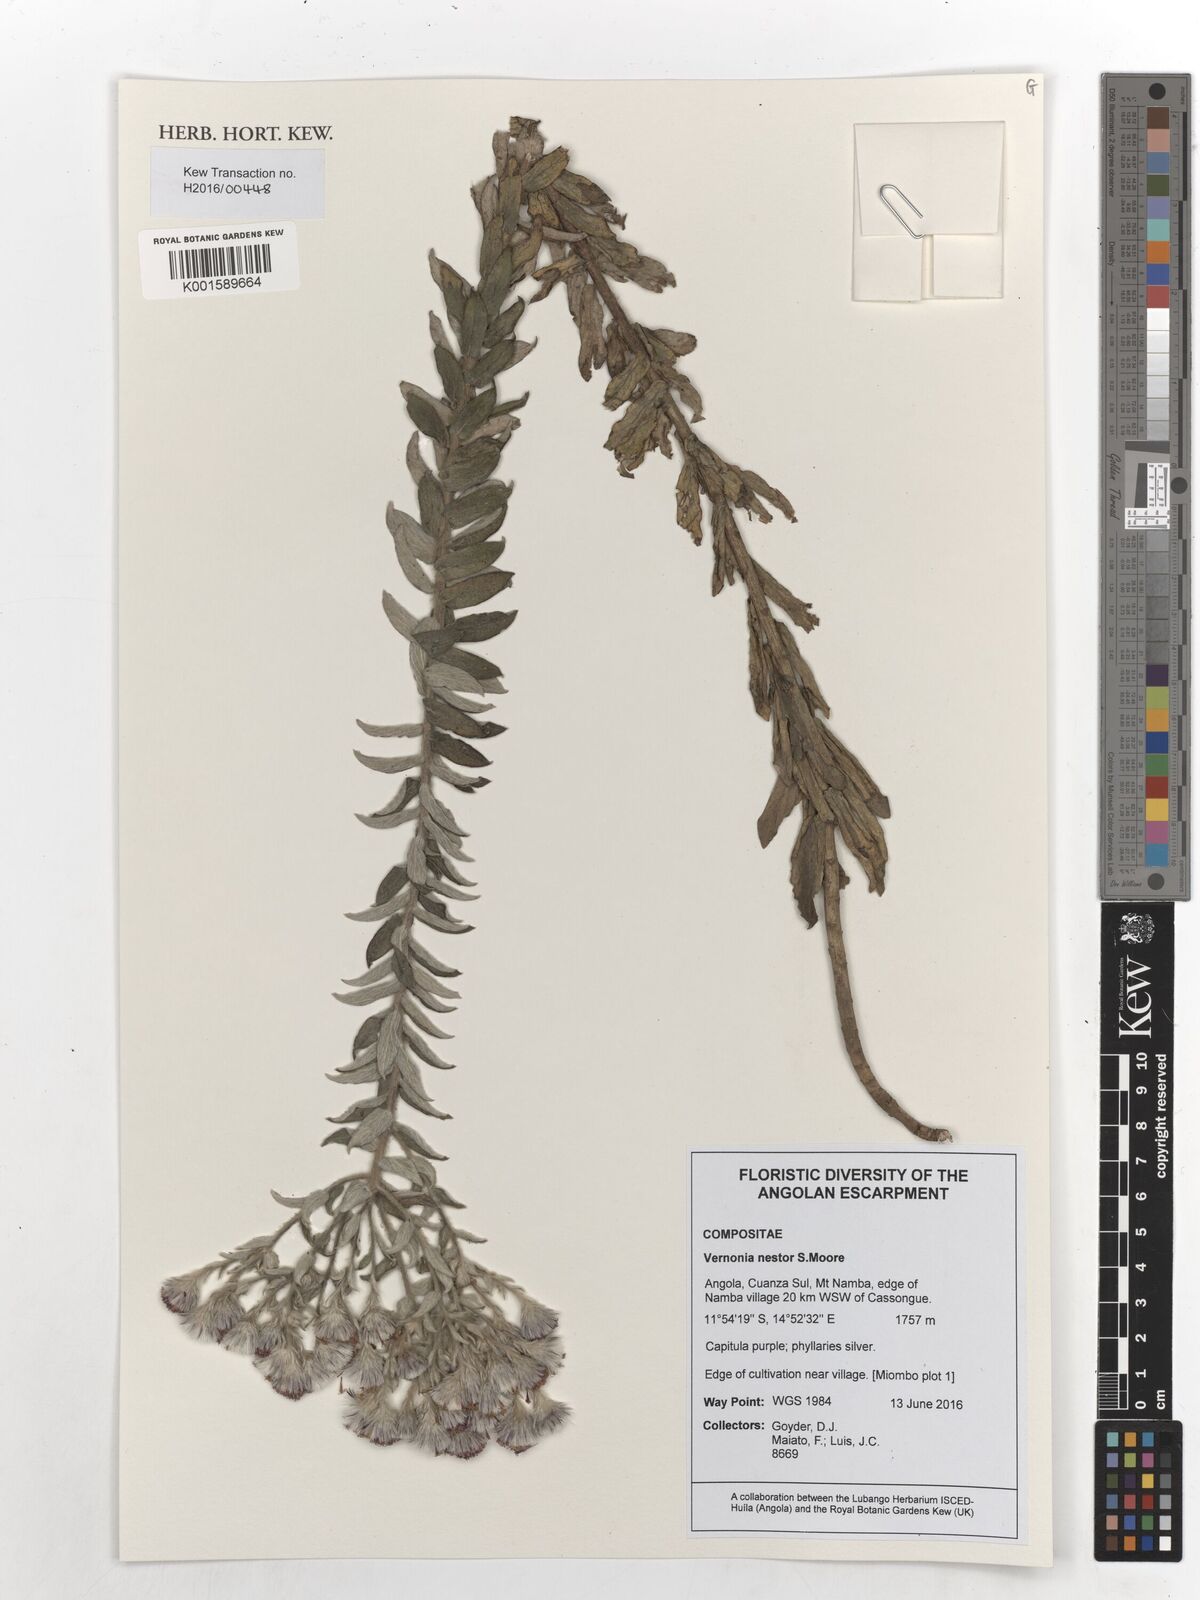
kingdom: Plantae
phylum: Tracheophyta
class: Magnoliopsida
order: Asterales
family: Asteraceae
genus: Vernoniastrum
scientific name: Vernoniastrum nestor
